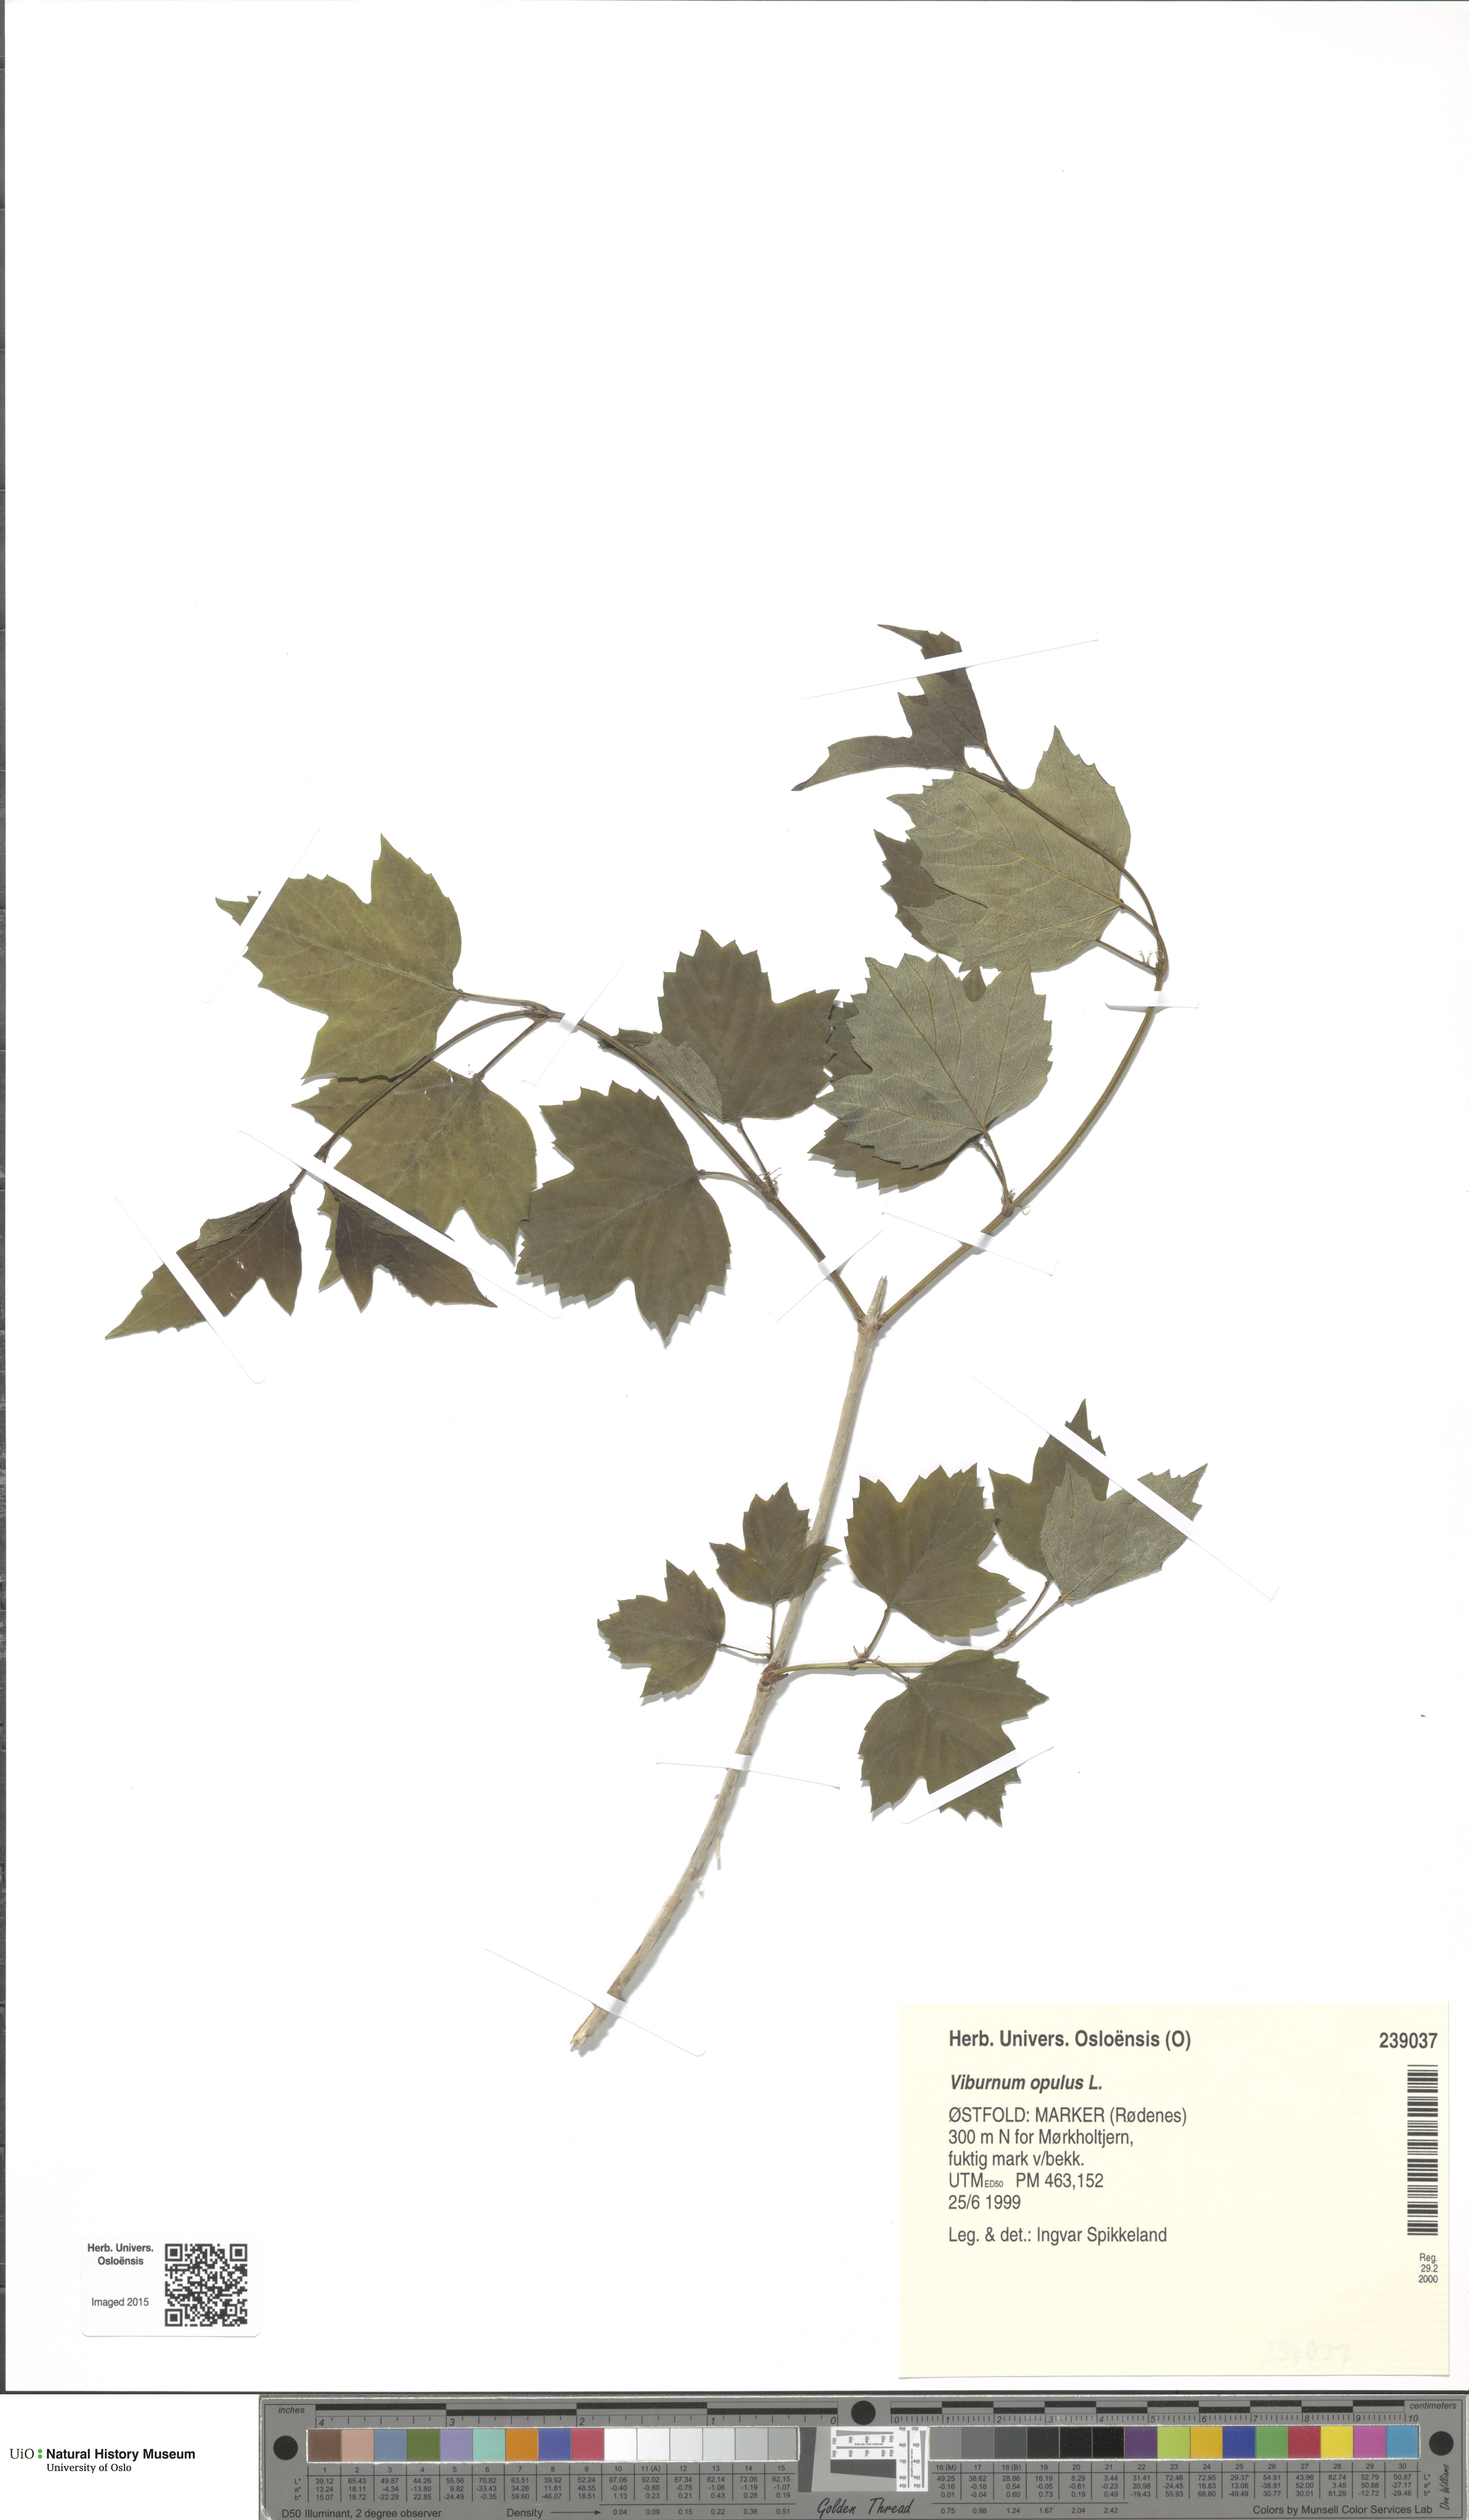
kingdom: Plantae
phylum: Tracheophyta
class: Magnoliopsida
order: Dipsacales
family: Viburnaceae
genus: Viburnum
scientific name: Viburnum opulus
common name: Guelder-rose
